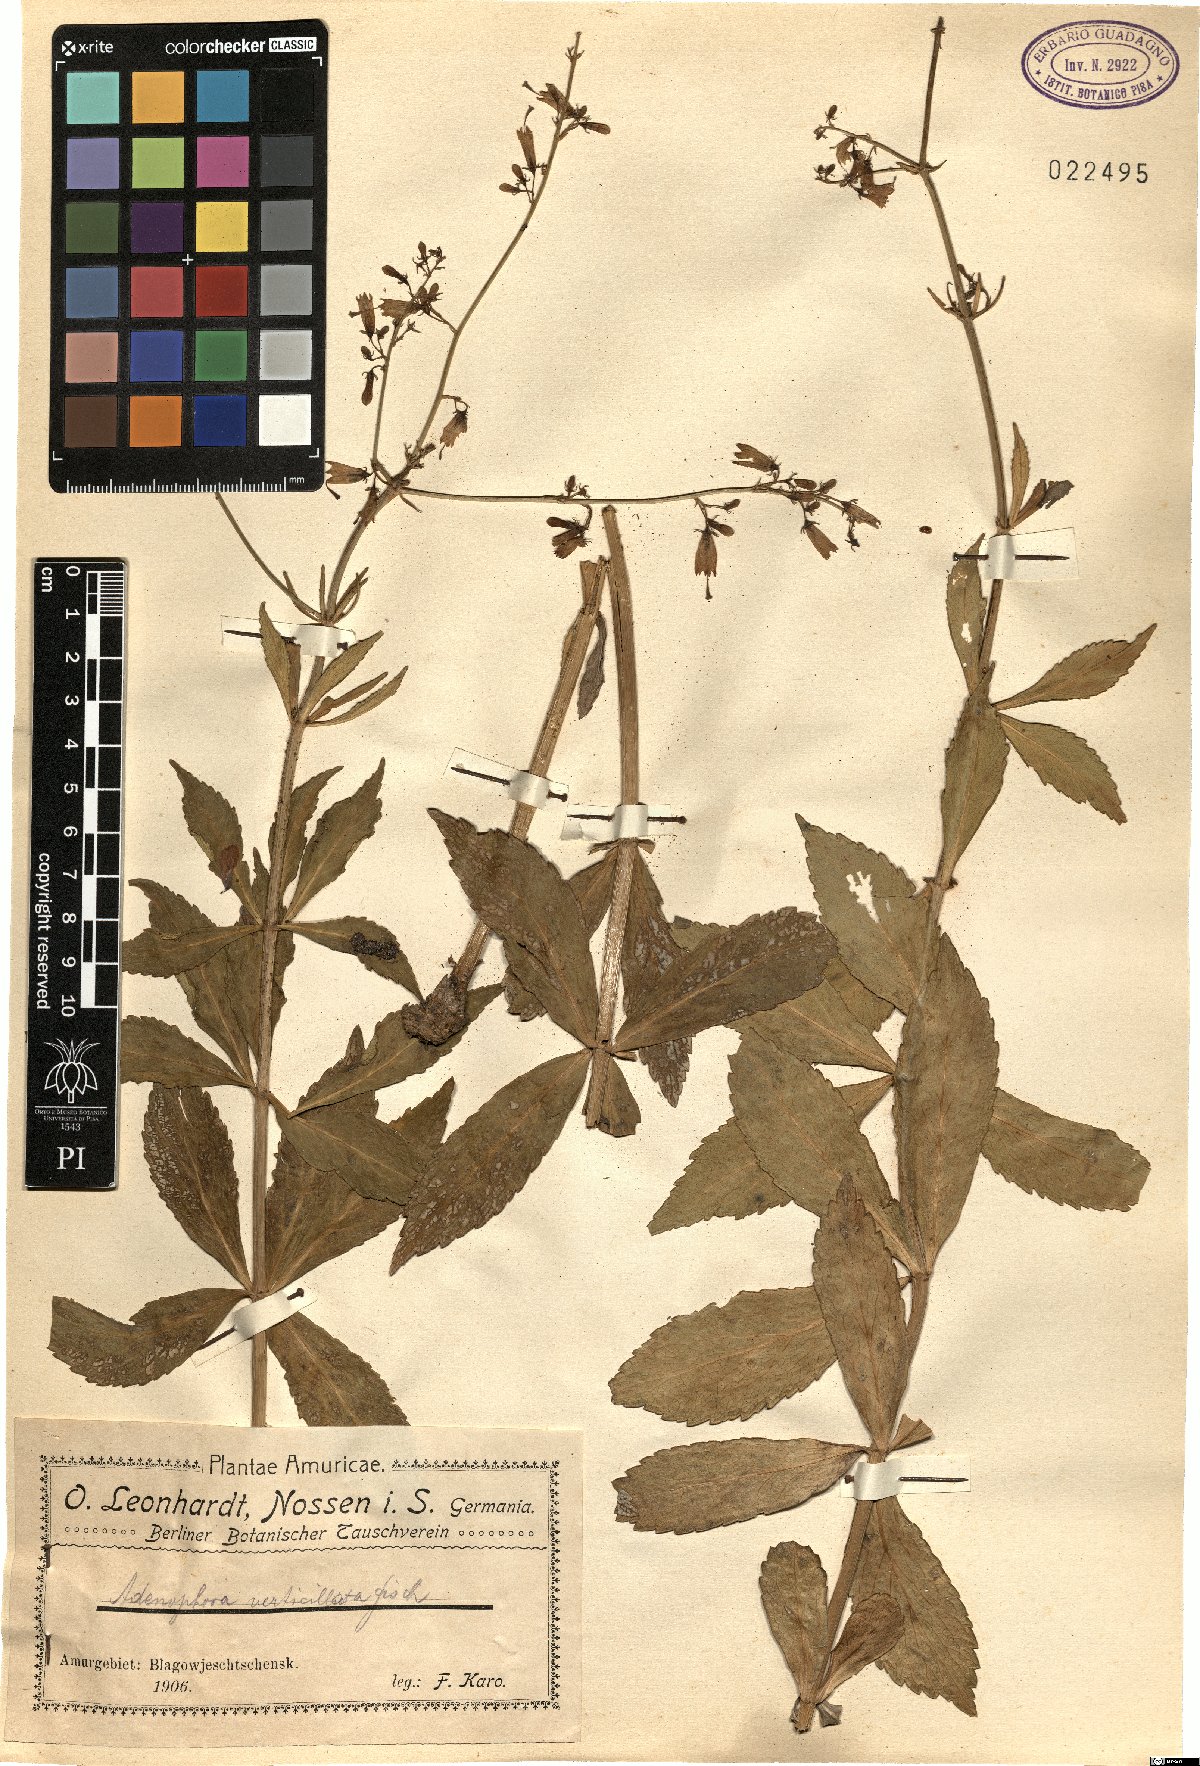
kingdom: Plantae
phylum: Tracheophyta
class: Magnoliopsida
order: Asterales
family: Campanulaceae
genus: Adenophora
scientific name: Adenophora triphylla
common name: Giant-bellflower
